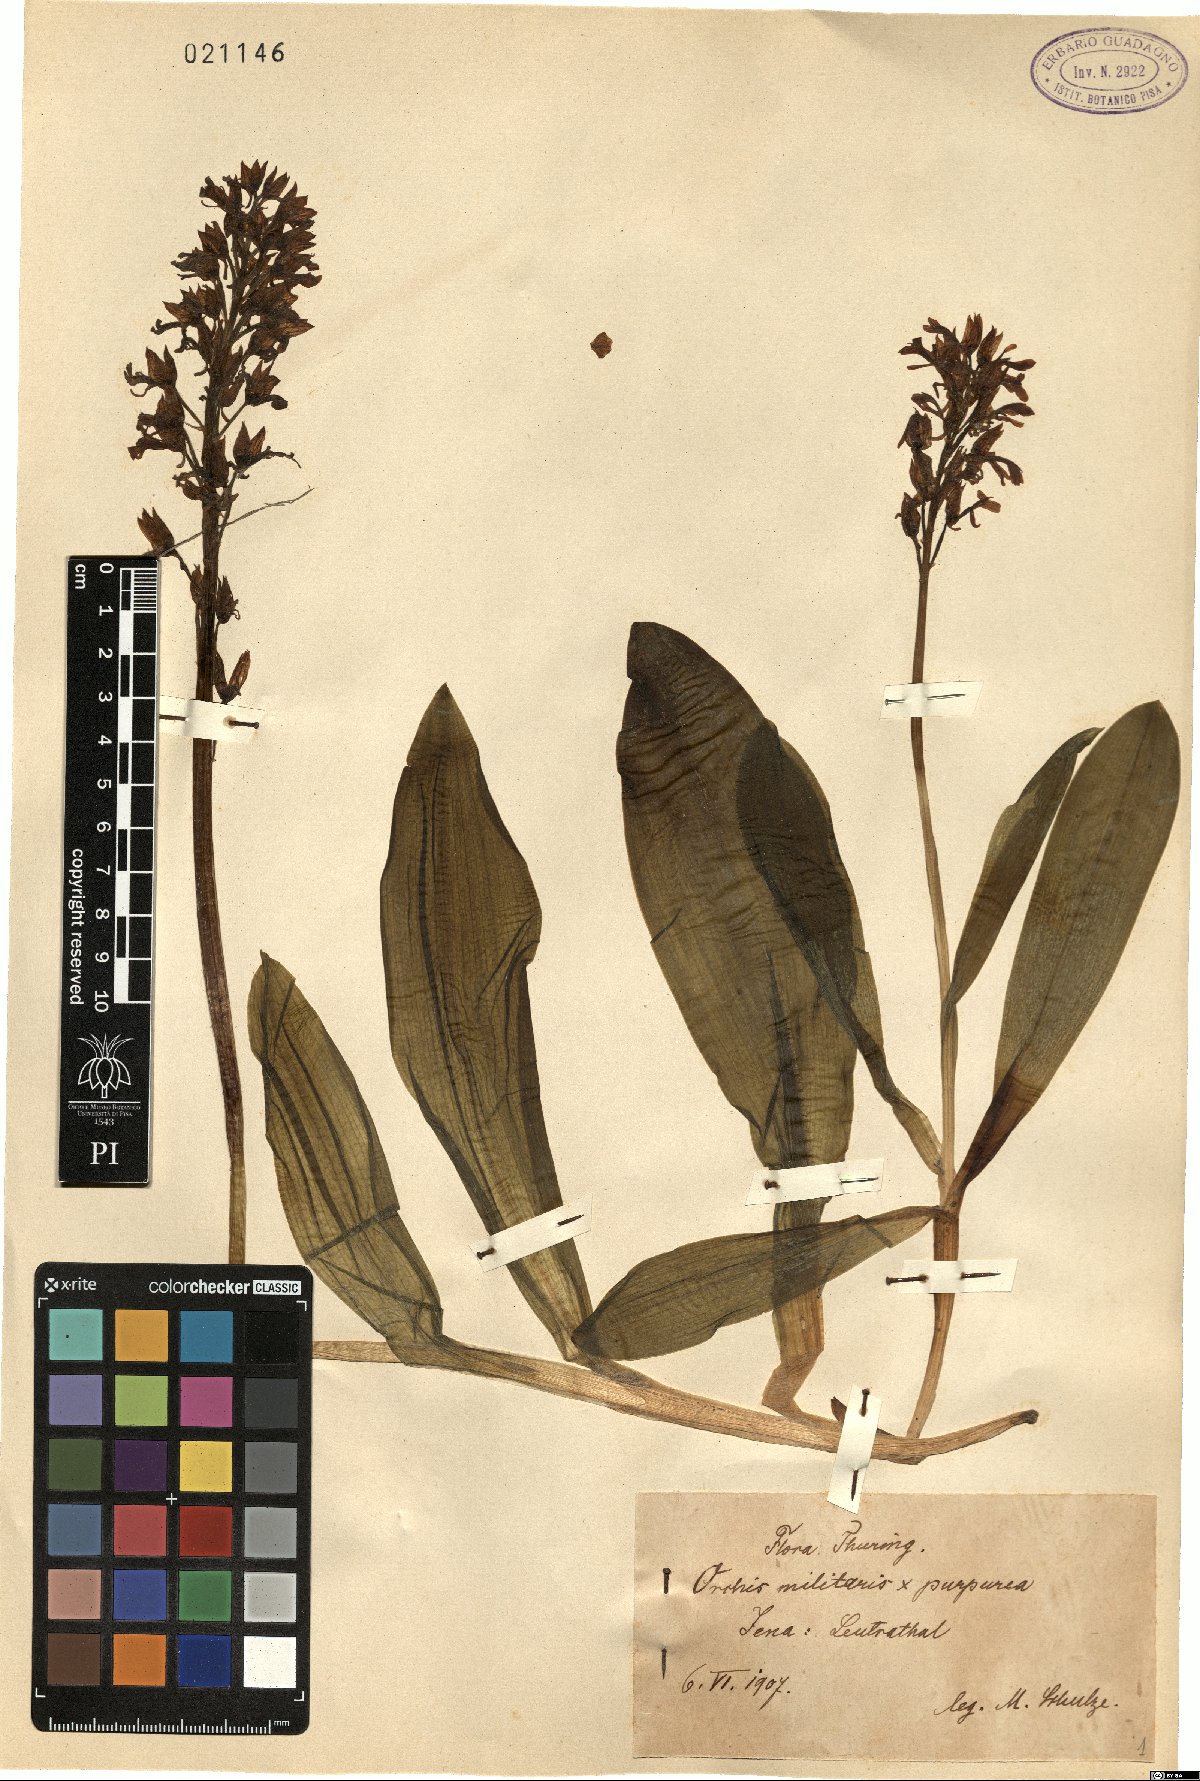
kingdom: Plantae
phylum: Tracheophyta
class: Liliopsida
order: Asparagales
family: Orchidaceae
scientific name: Orchidaceae
